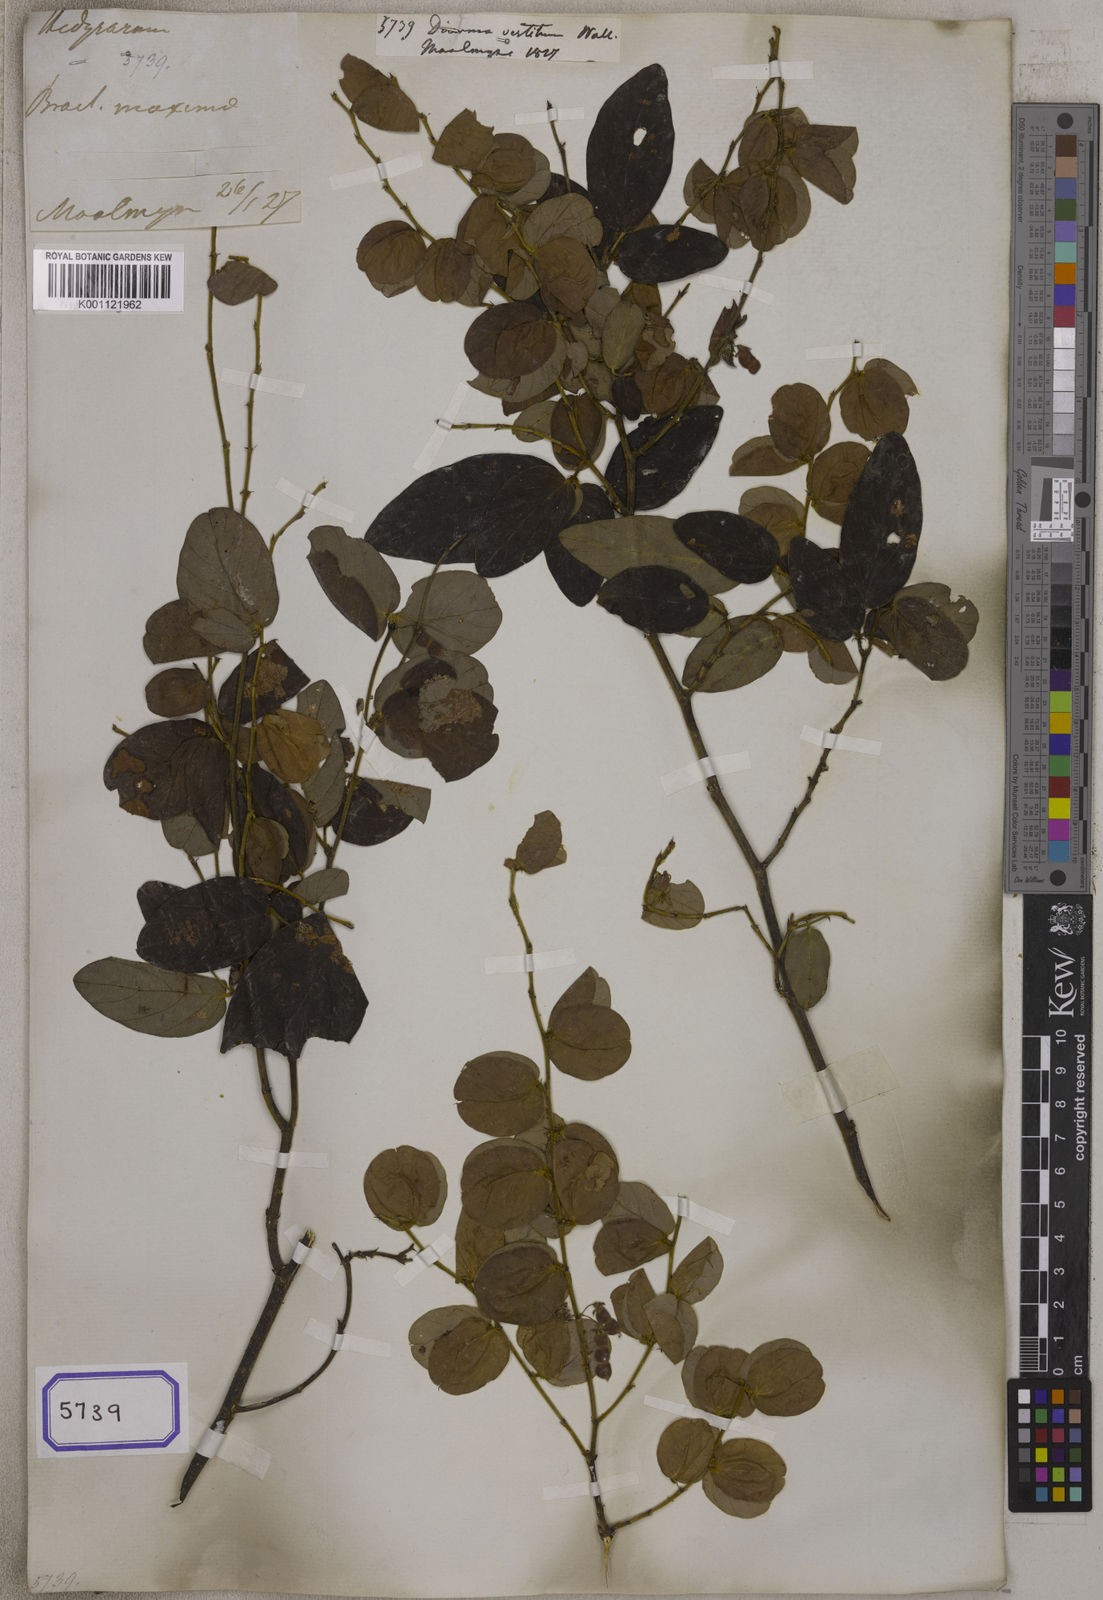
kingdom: Plantae
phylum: Tracheophyta
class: Magnoliopsida
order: Fabales
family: Fabaceae
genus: Aphyllodium
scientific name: Aphyllodium
